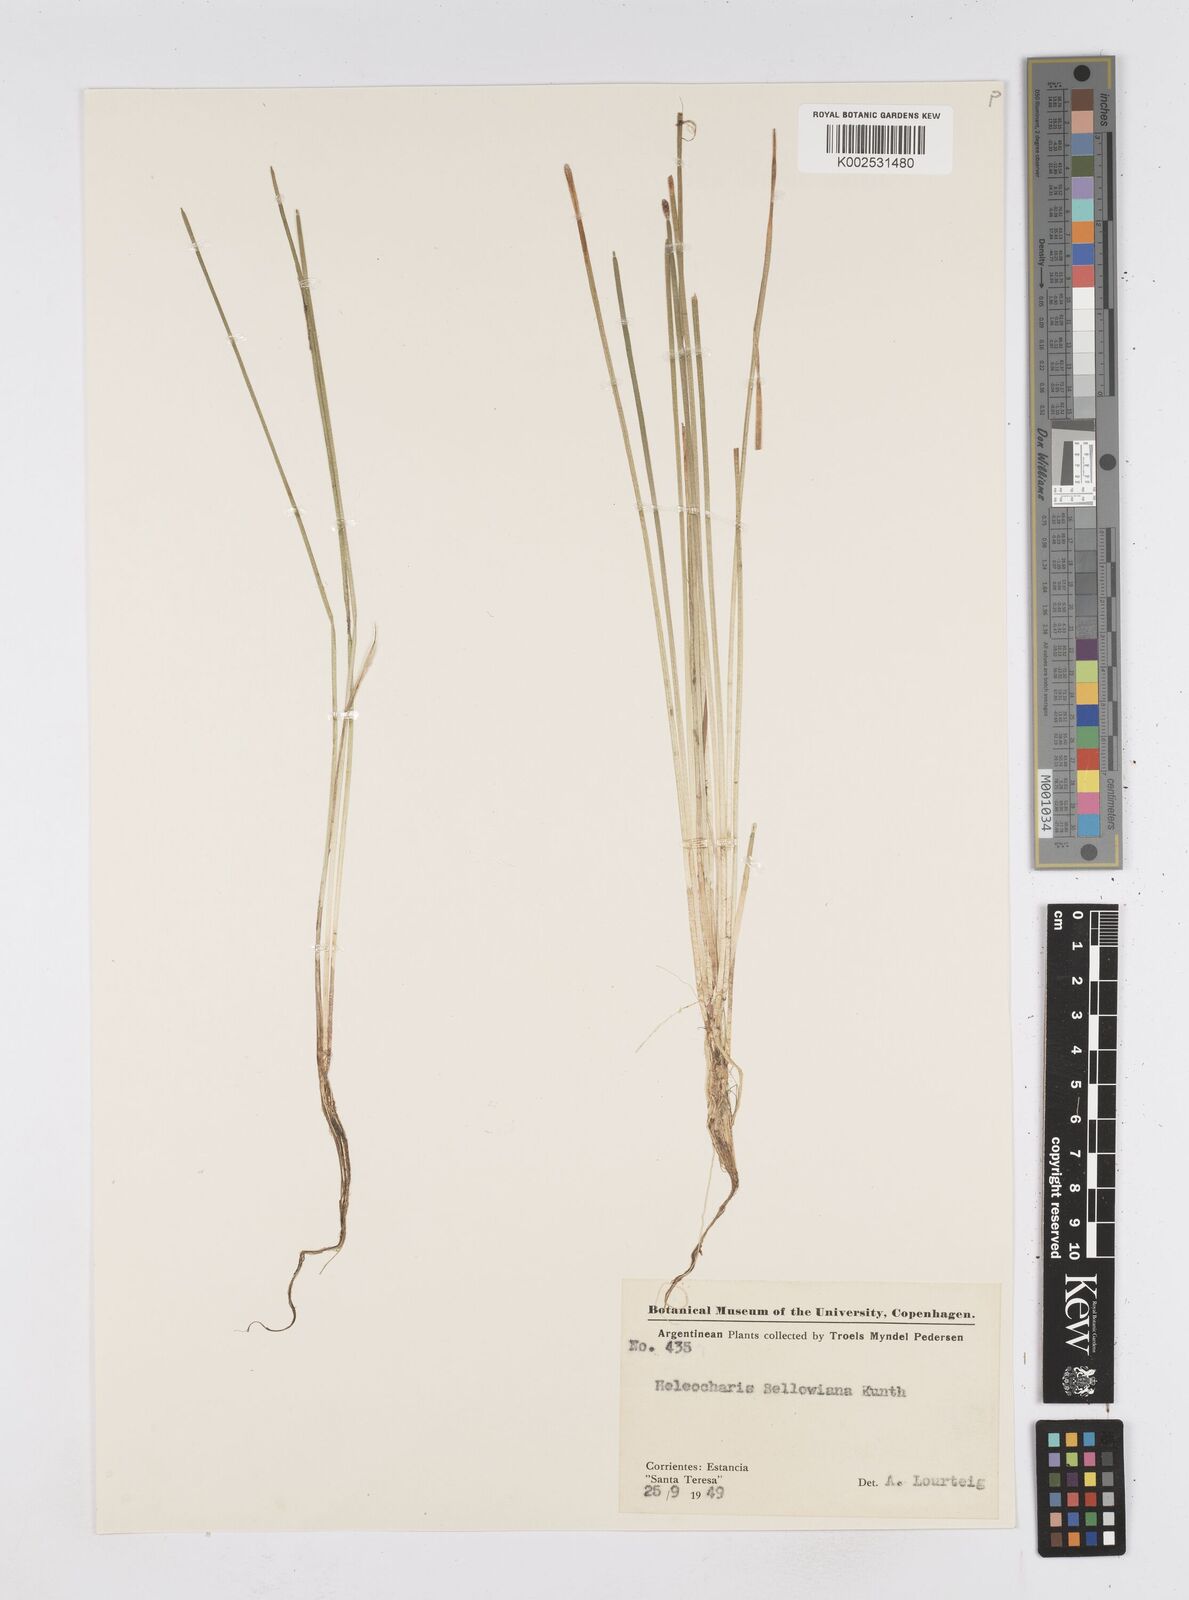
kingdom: Plantae
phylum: Tracheophyta
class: Liliopsida
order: Poales
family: Cyperaceae
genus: Eleocharis
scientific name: Eleocharis sellowiana
